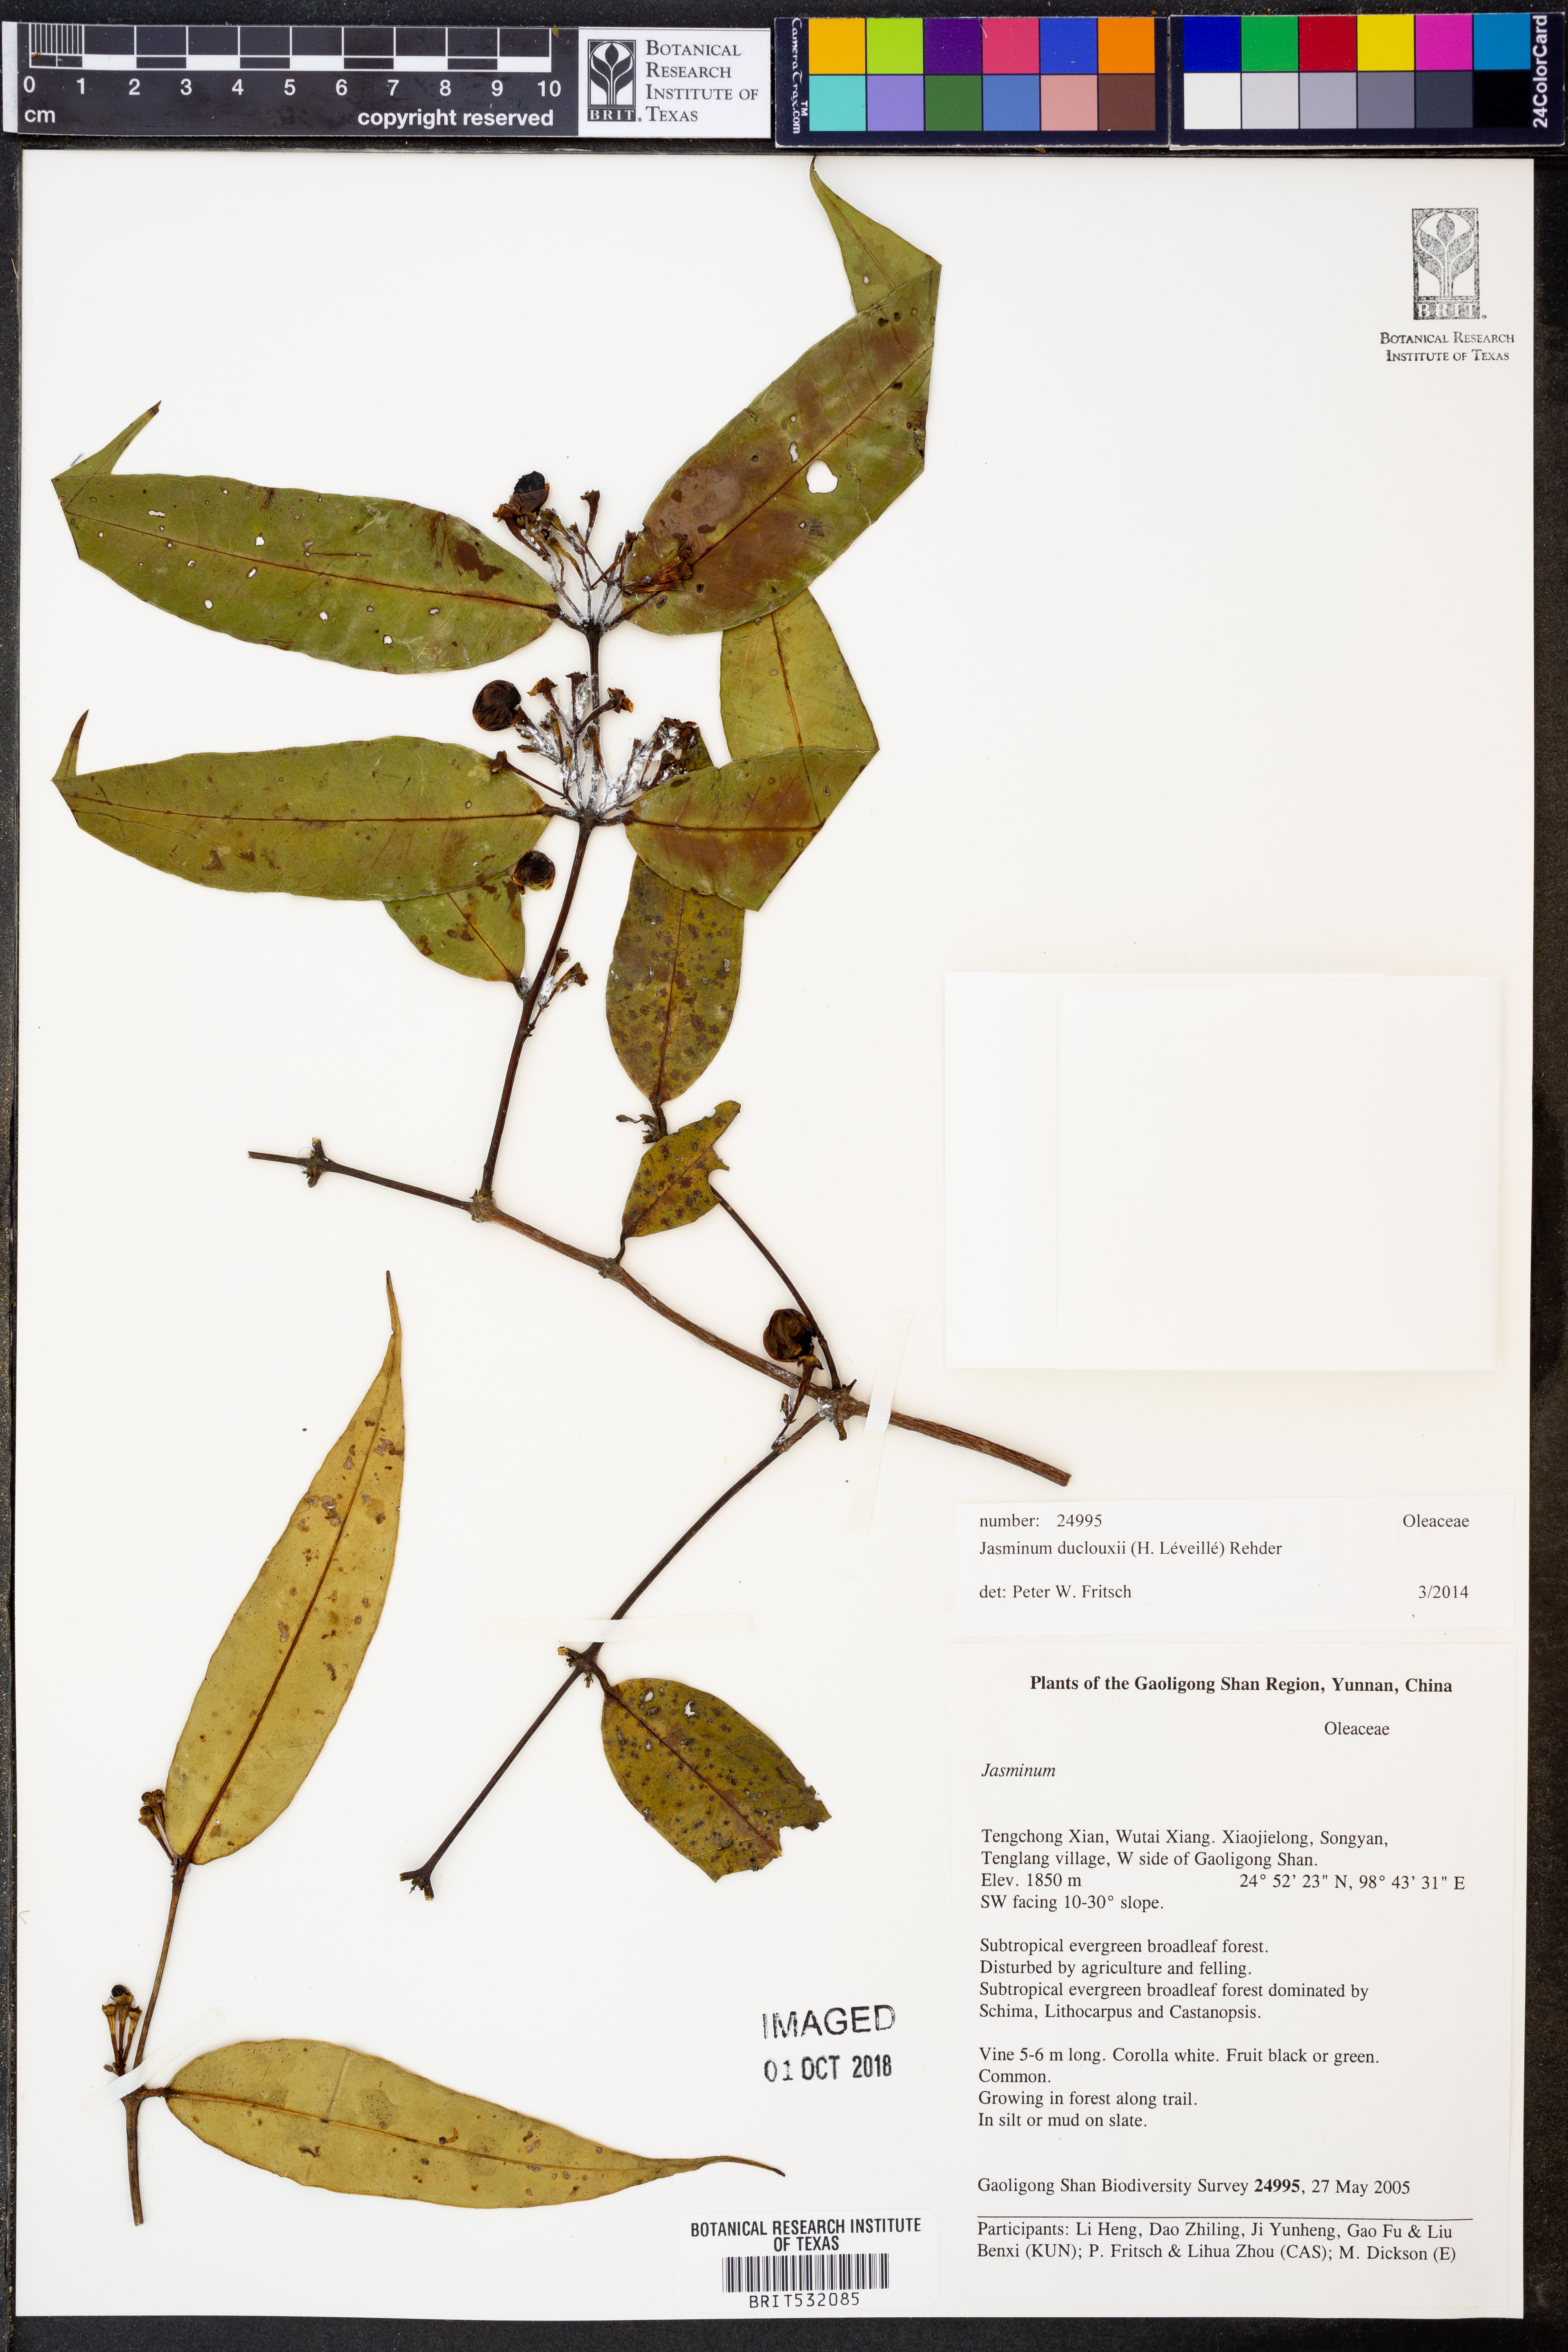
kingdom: Plantae
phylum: Tracheophyta
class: Magnoliopsida
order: Lamiales
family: Oleaceae
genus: Jasminum
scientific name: Jasminum duclouxii
